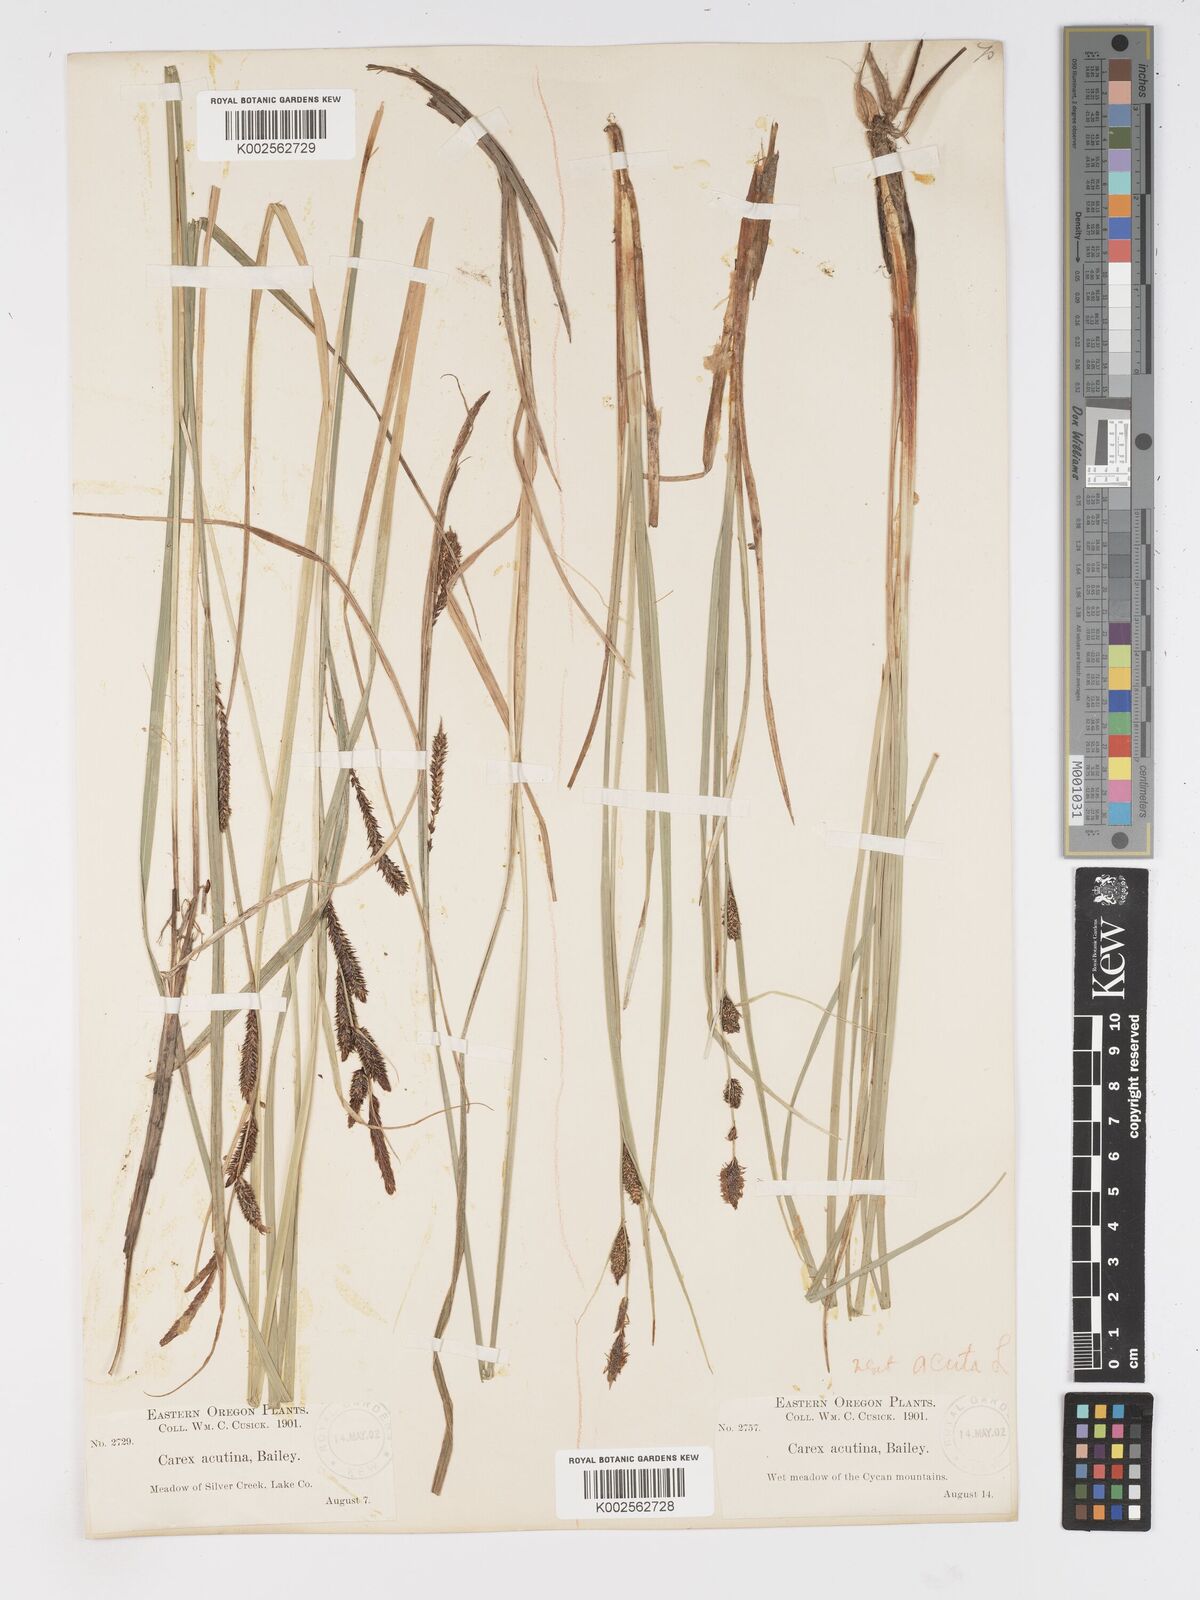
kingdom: Plantae
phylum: Tracheophyta
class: Liliopsida
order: Poales
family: Cyperaceae
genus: Carex
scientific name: Carex angustata
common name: Widefruit sedge
